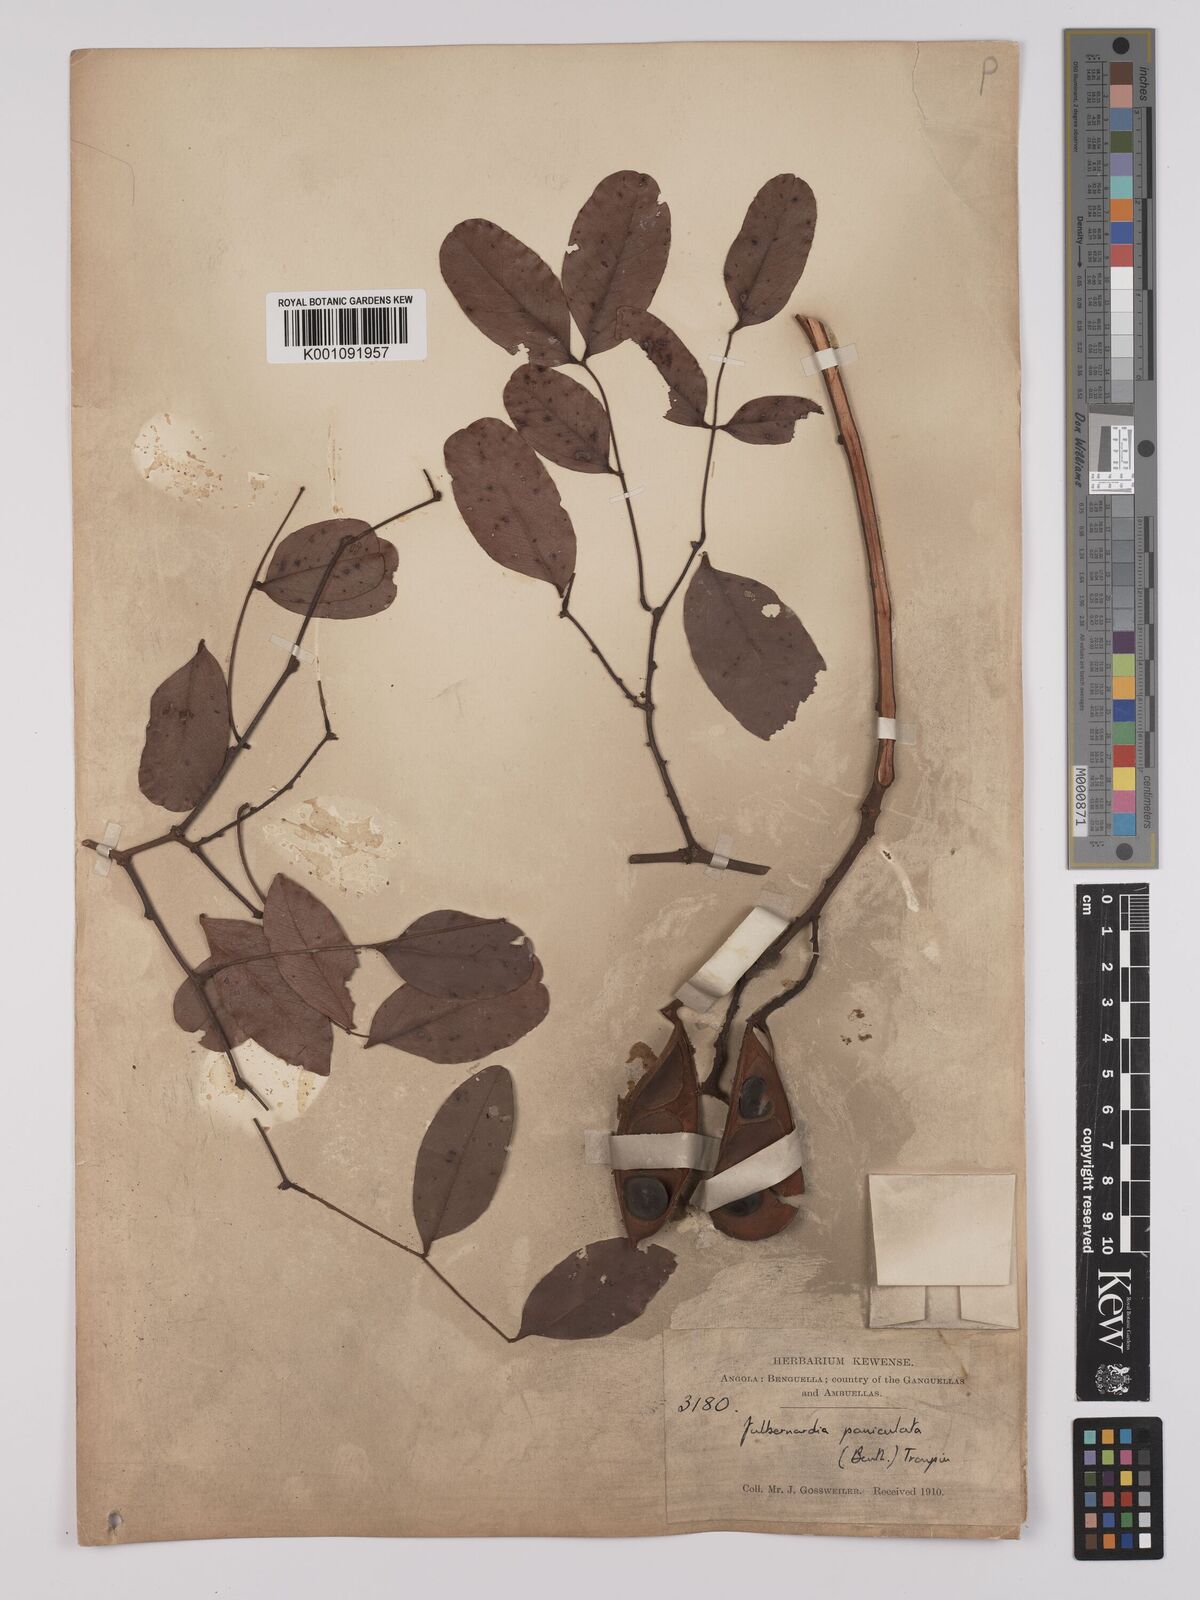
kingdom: Plantae
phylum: Tracheophyta
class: Magnoliopsida
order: Fabales
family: Fabaceae
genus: Julbernardia
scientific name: Julbernardia paniculata
